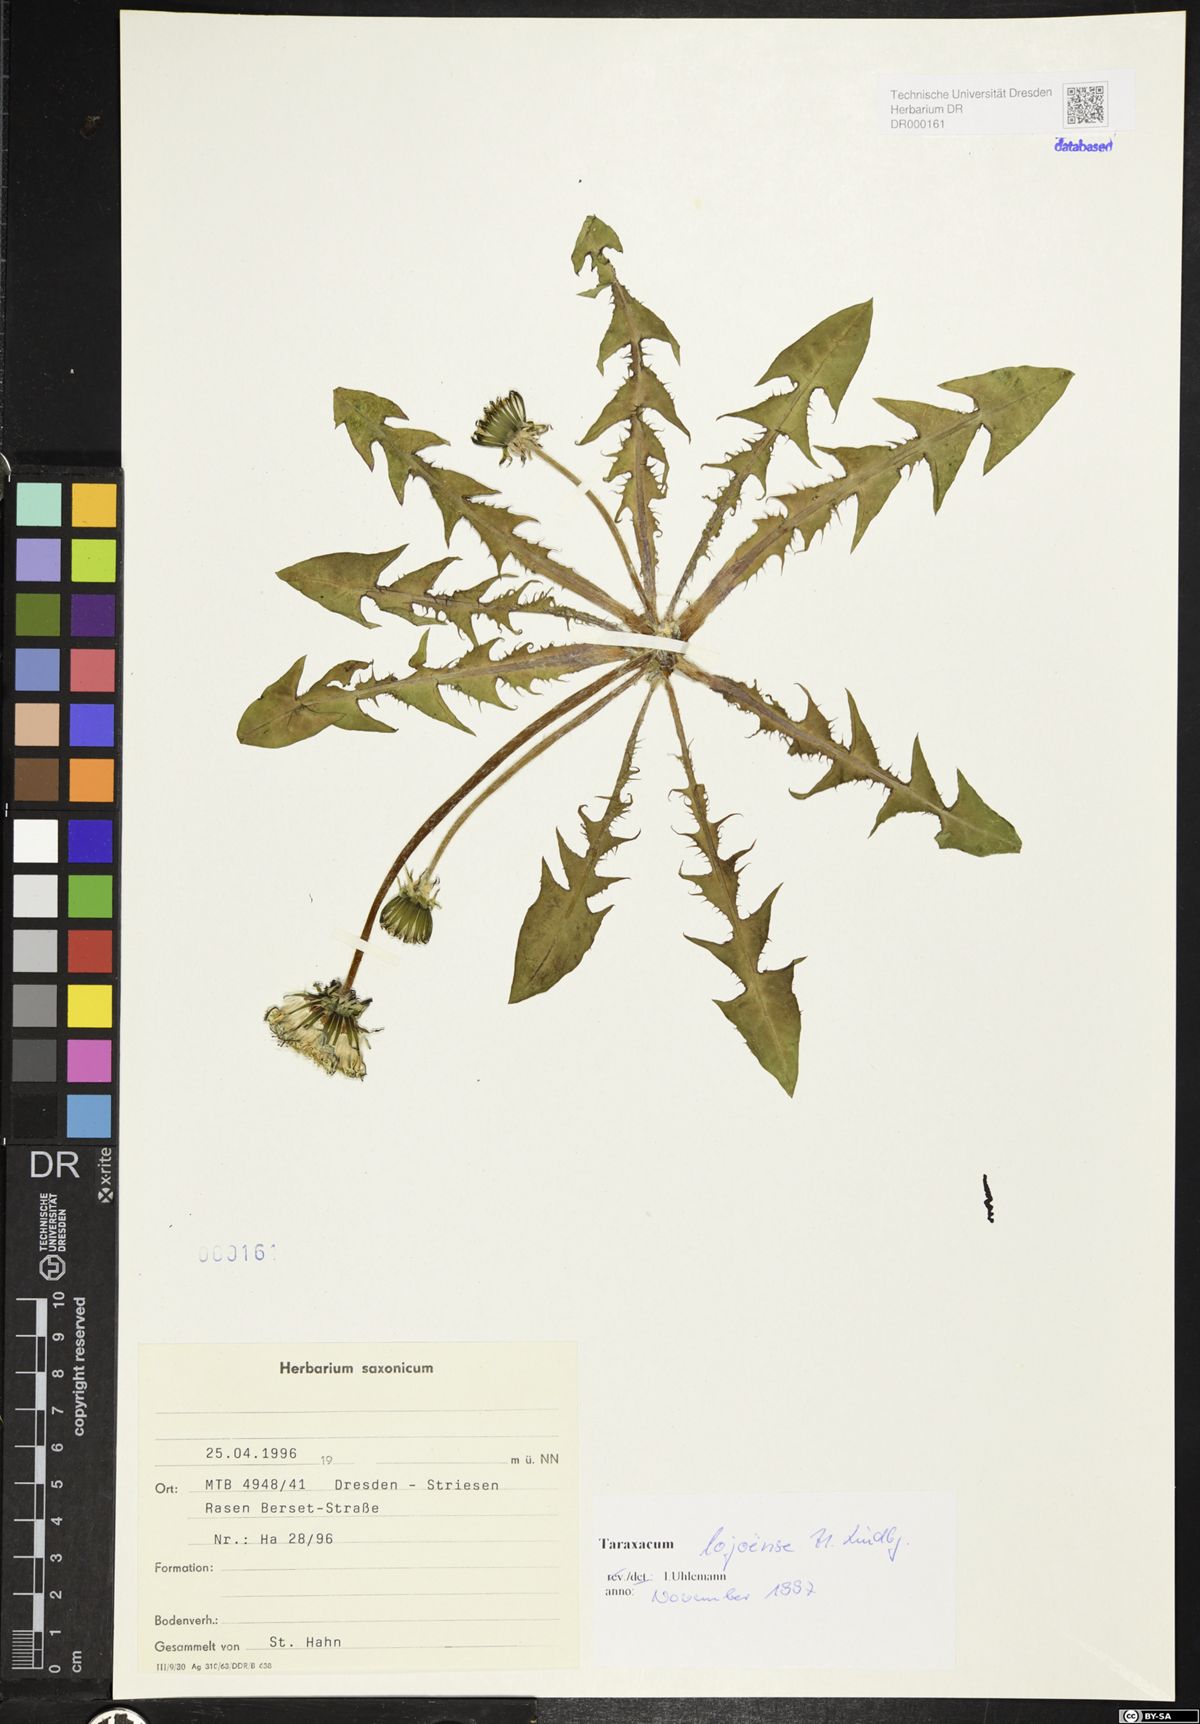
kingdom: Plantae
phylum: Tracheophyta
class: Magnoliopsida
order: Asterales
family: Asteraceae
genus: Taraxacum
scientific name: Taraxacum debrayi
